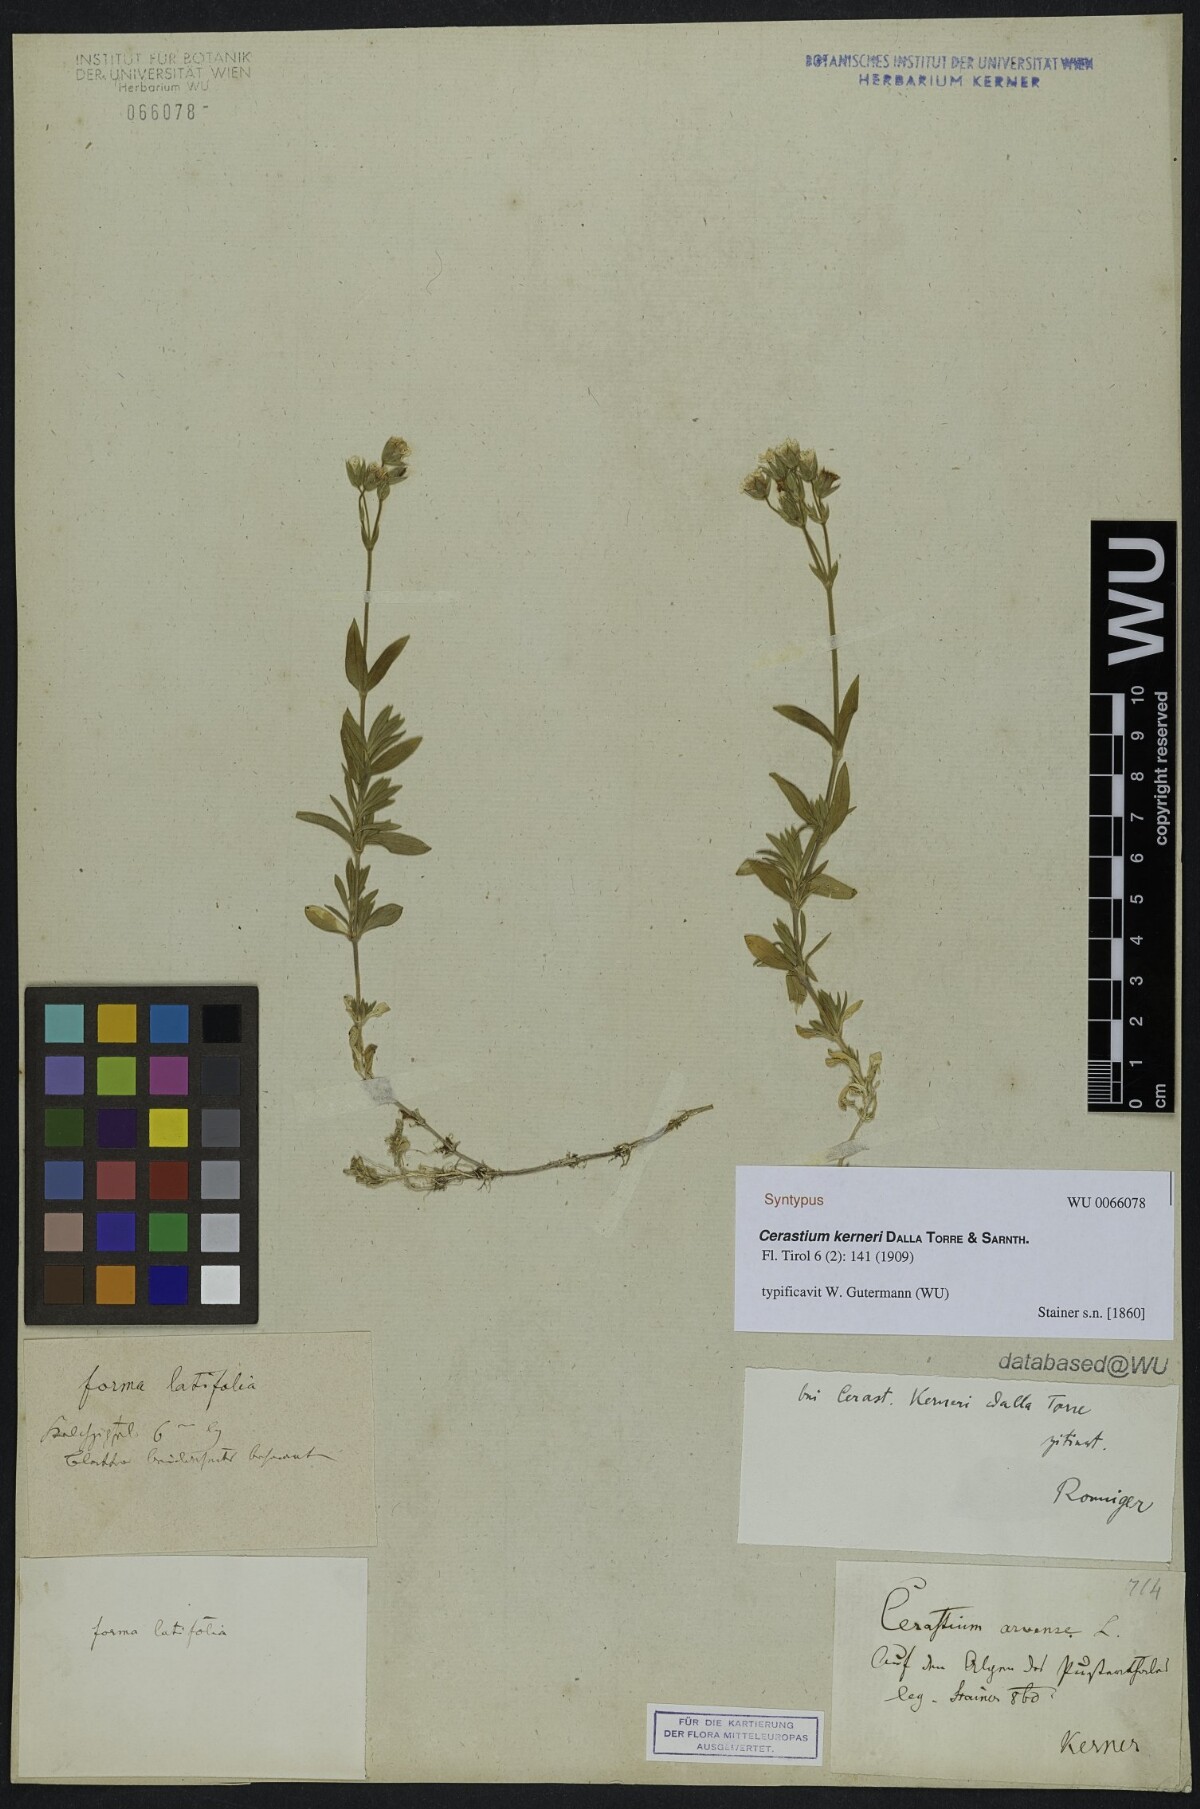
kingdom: Plantae
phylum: Tracheophyta
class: Magnoliopsida
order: Caryophyllales
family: Caryophyllaceae
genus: Cerastium
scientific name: Cerastium elongatum
